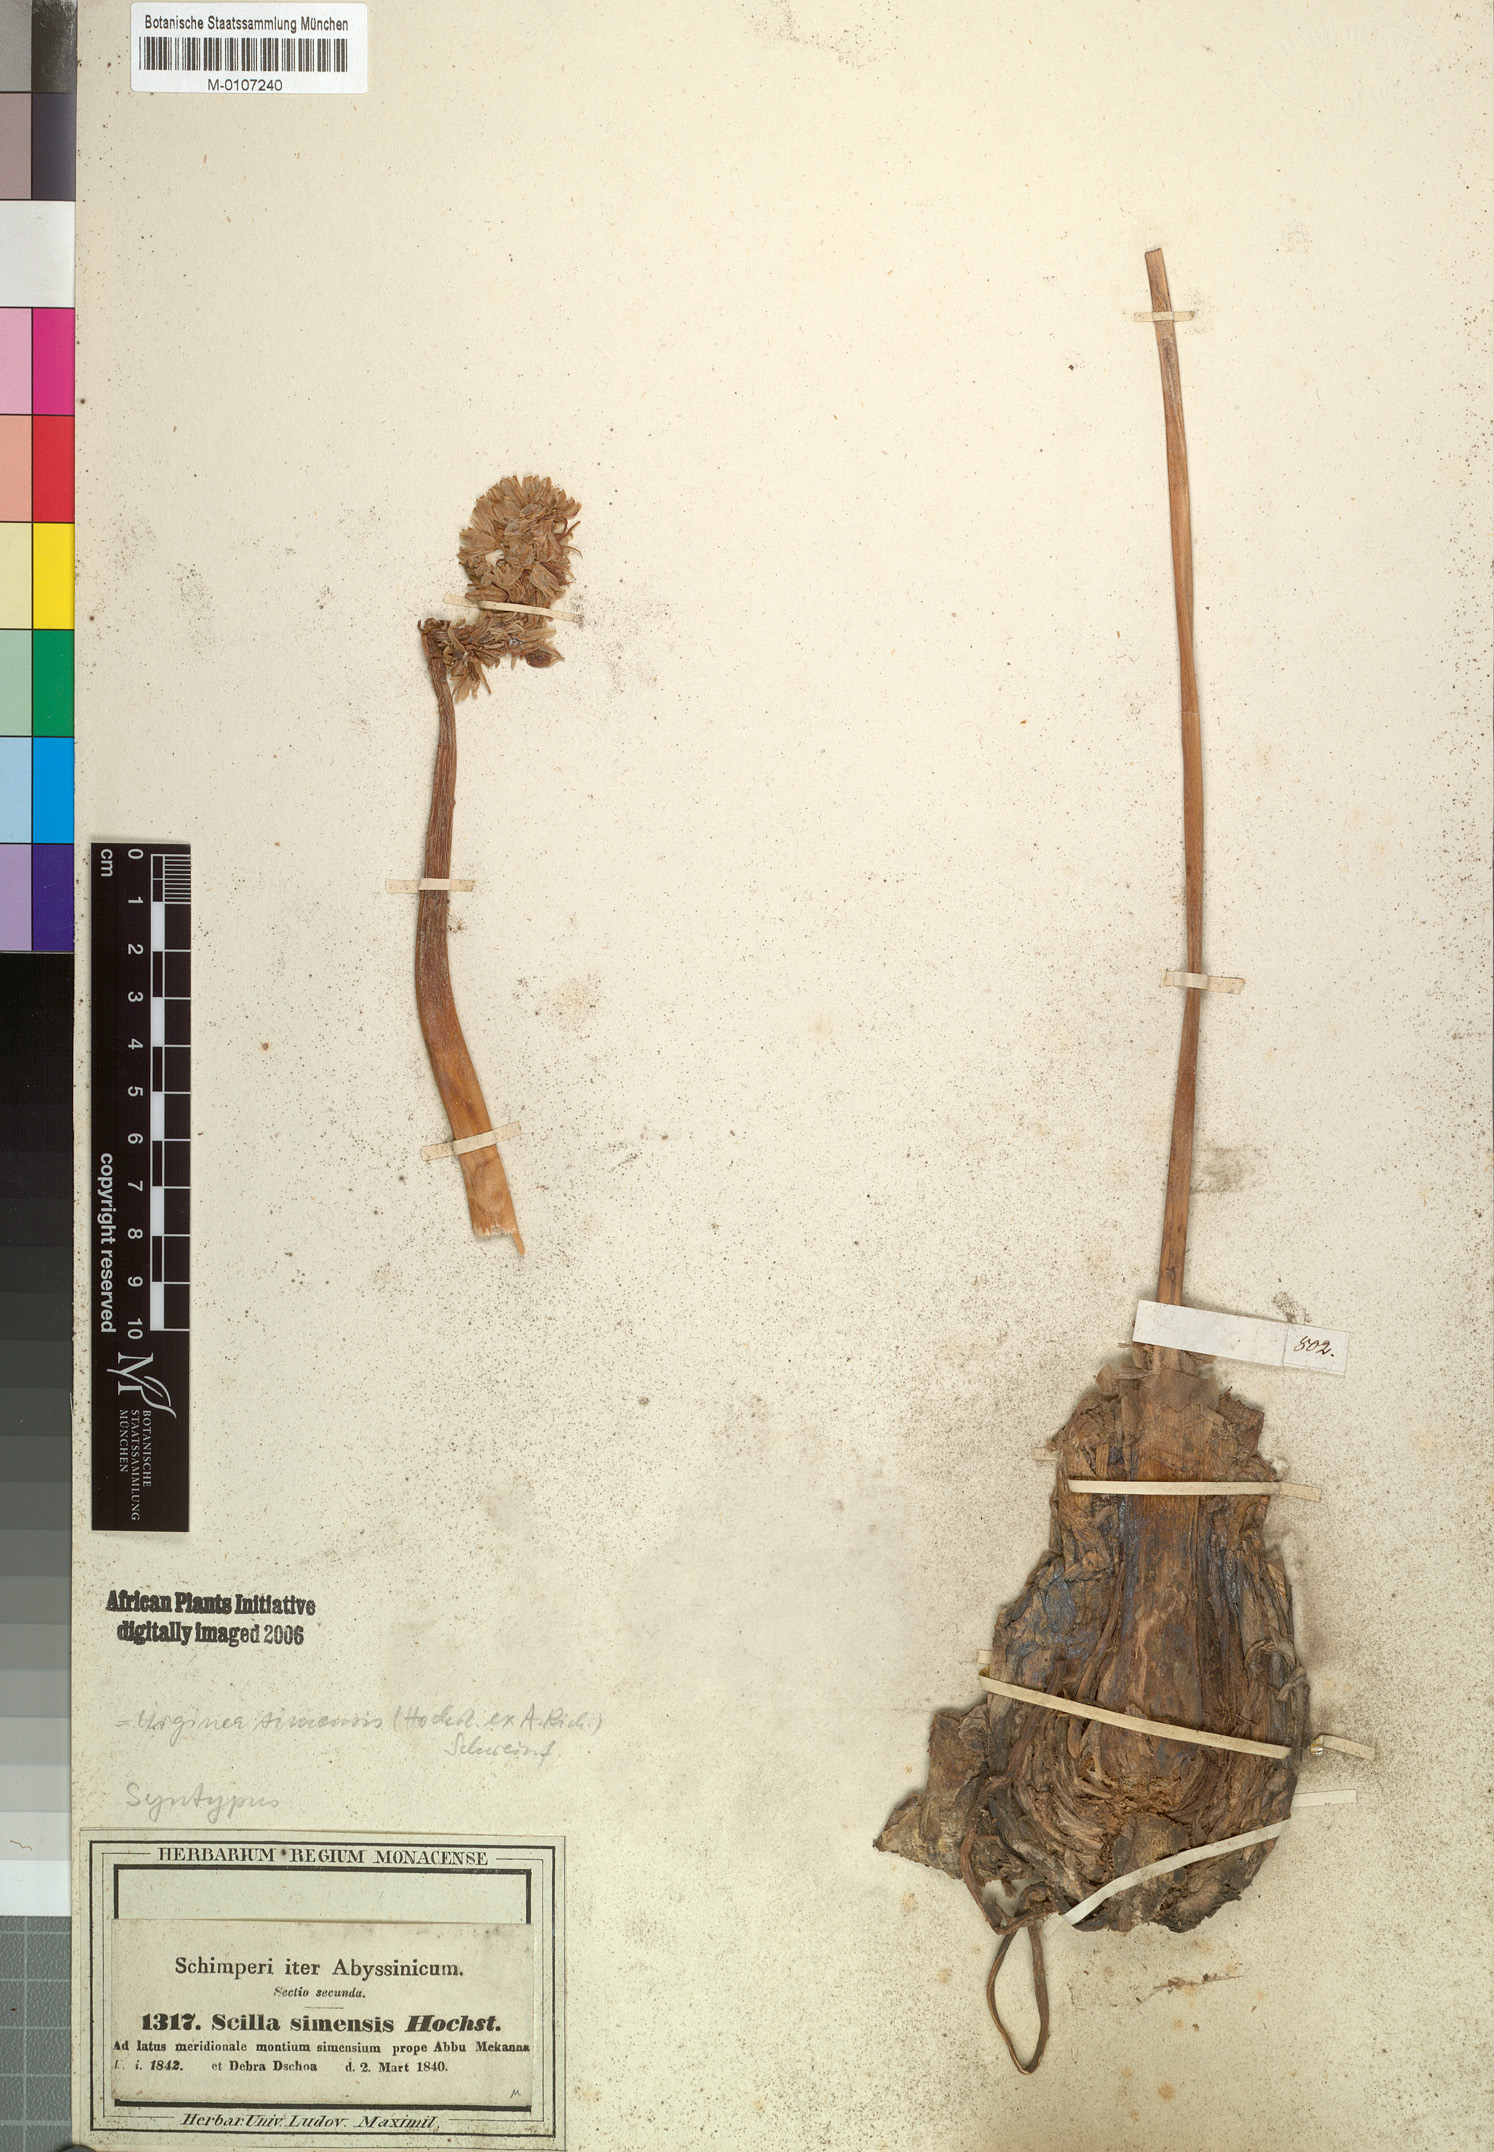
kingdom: Plantae
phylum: Tracheophyta
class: Liliopsida
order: Asparagales
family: Asparagaceae
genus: Drimia
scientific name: Drimia simensis
